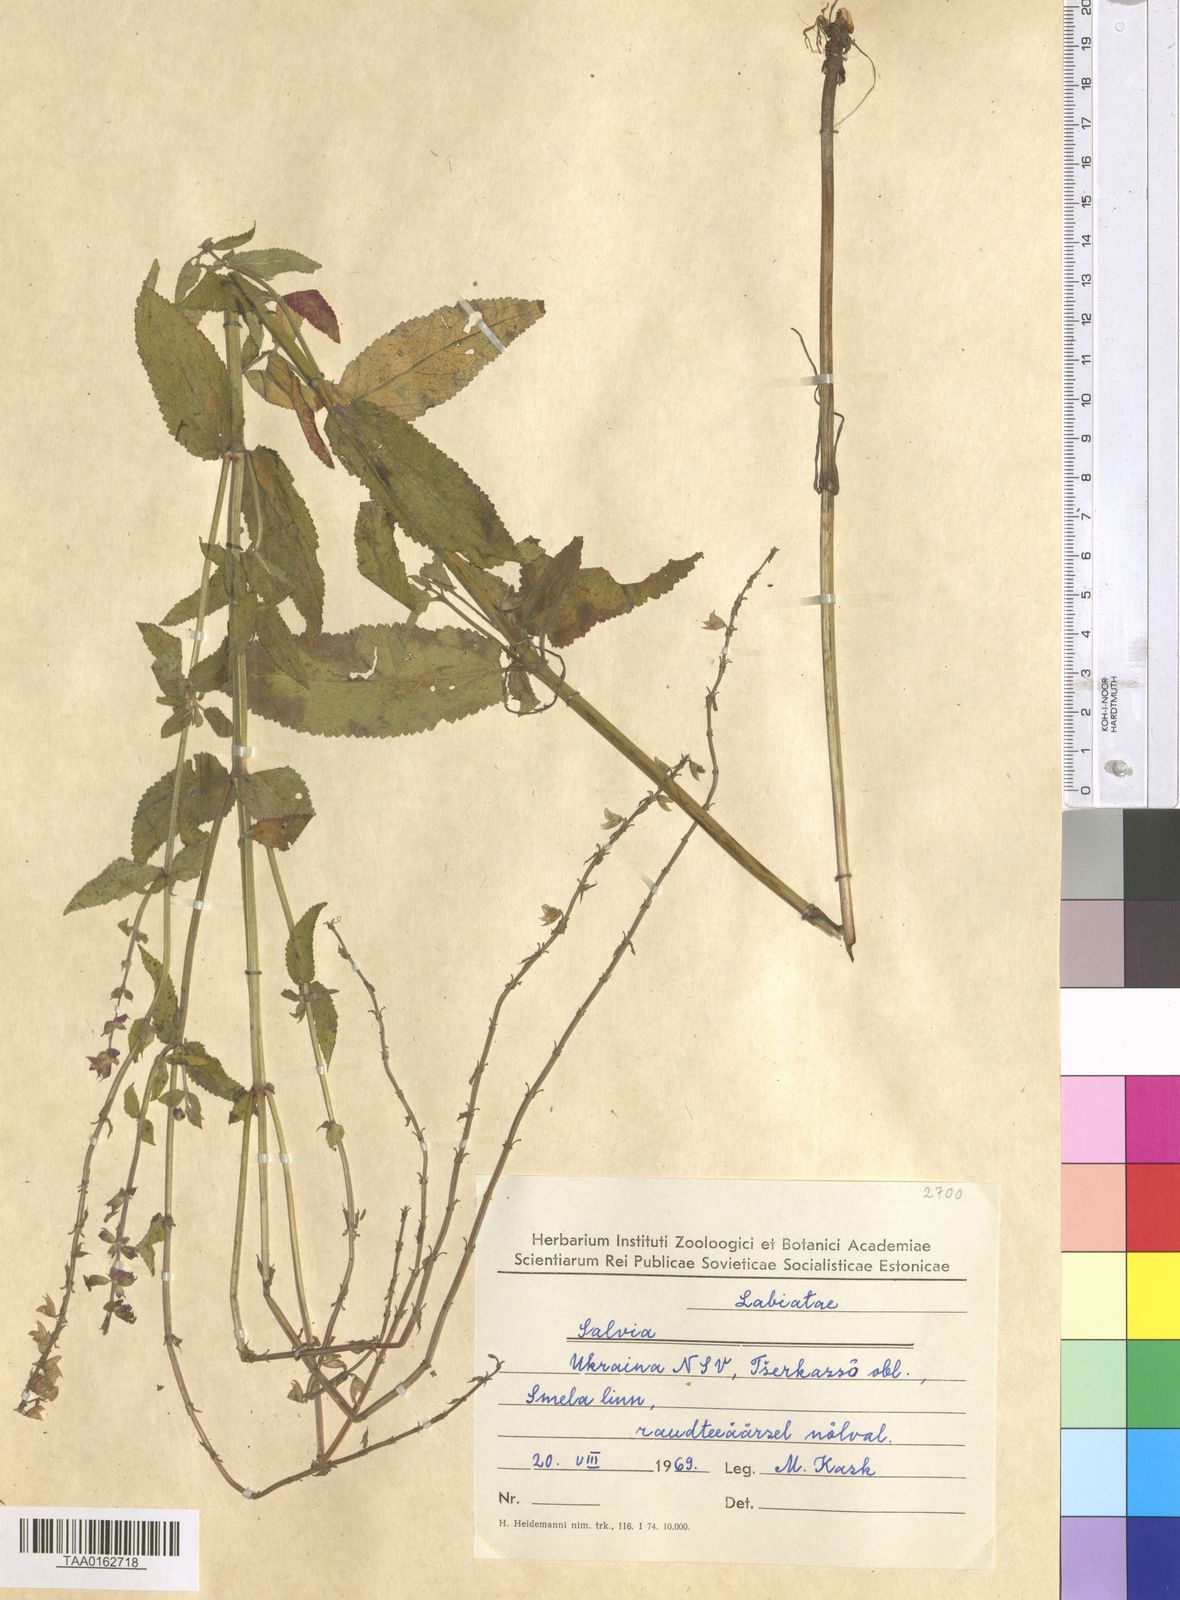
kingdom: Plantae
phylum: Tracheophyta
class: Magnoliopsida
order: Lamiales
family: Lamiaceae
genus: Salvia
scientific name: Salvia
